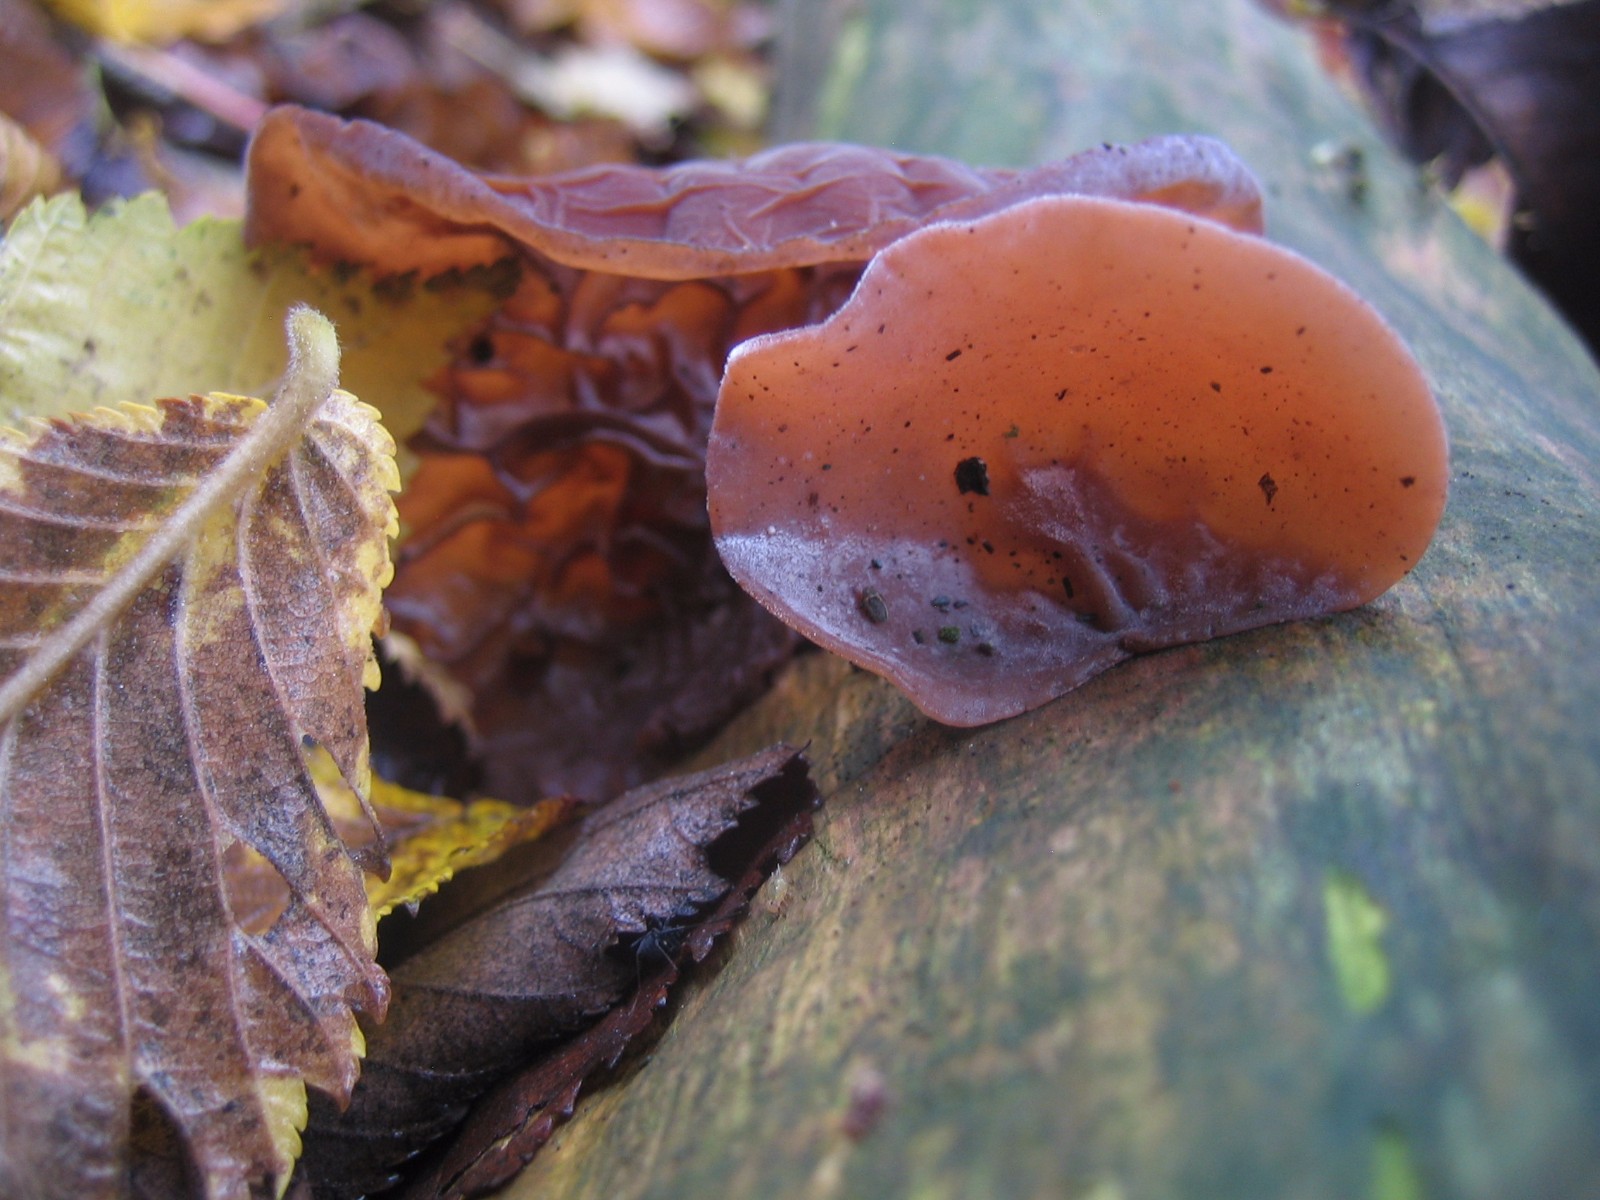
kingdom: Fungi
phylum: Basidiomycota
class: Agaricomycetes
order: Auriculariales
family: Auriculariaceae
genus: Auricularia
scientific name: Auricularia auricula-judae
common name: almindelig judasøre
